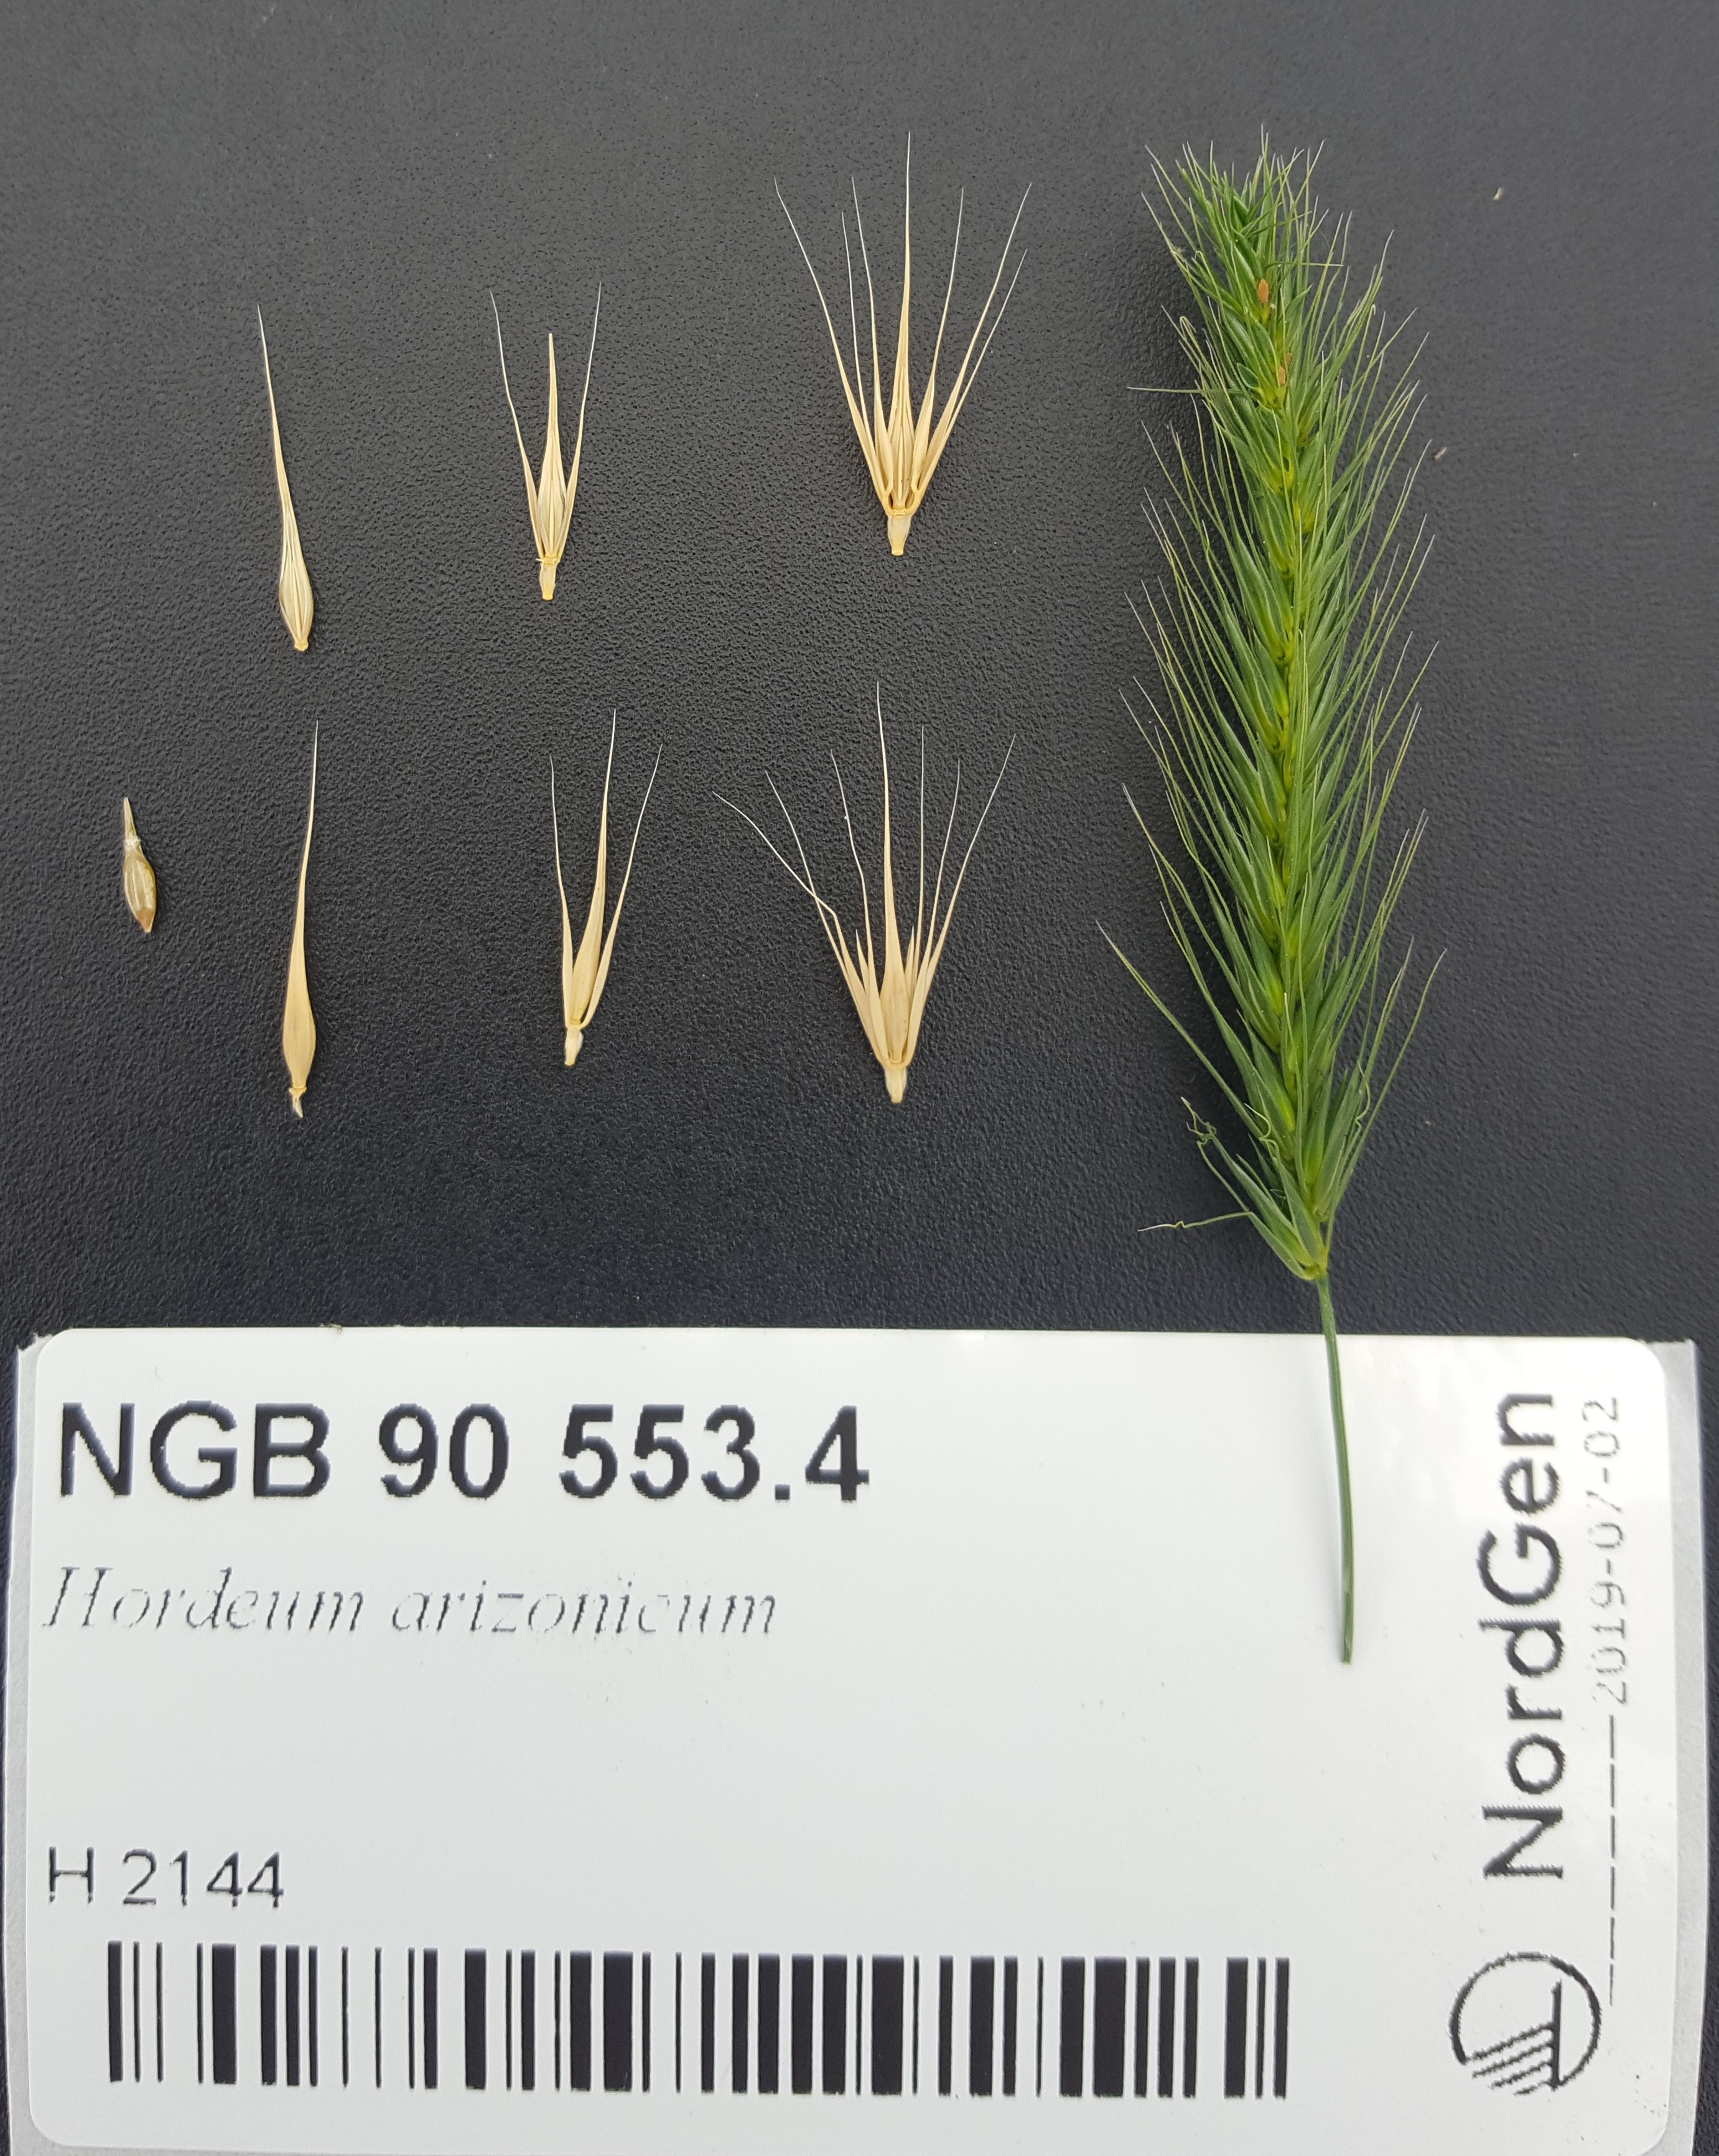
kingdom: Plantae
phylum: Tracheophyta
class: Liliopsida
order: Poales
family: Poaceae
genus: Hordeum
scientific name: Hordeum arizonicum
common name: Arizona barley
